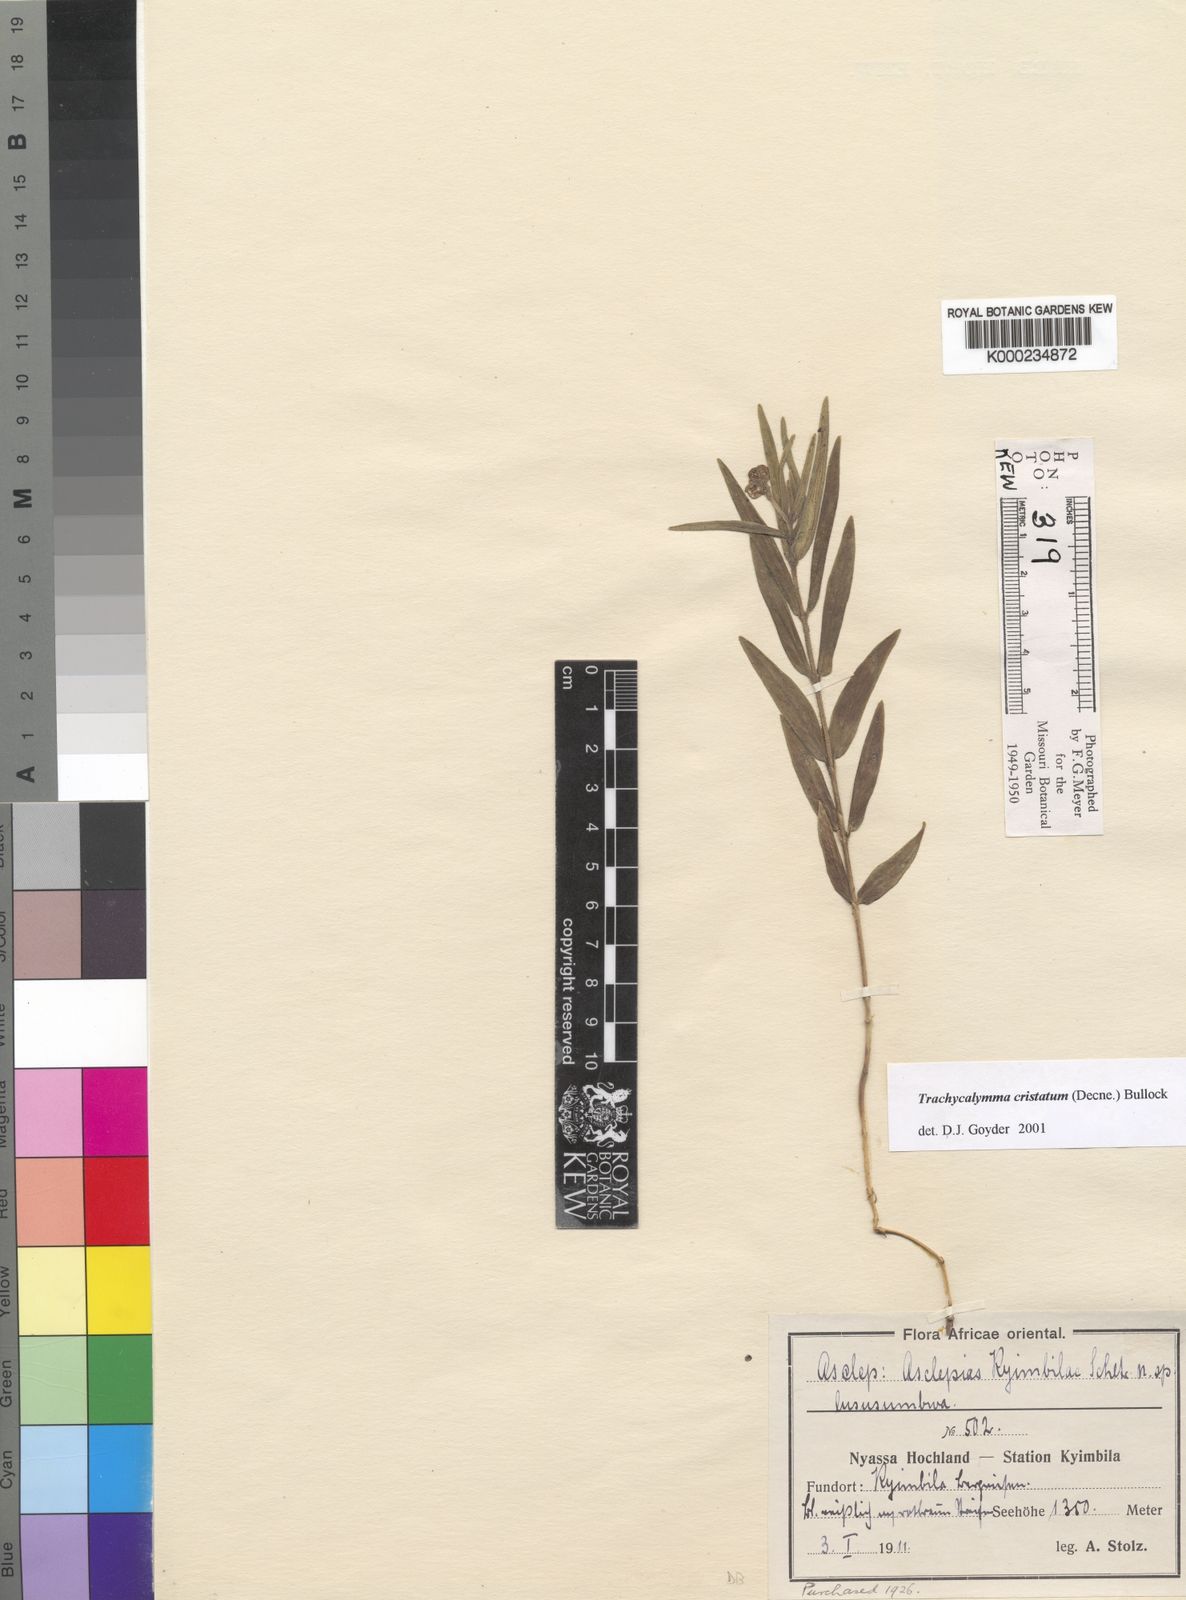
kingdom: Plantae
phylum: Tracheophyta
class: Magnoliopsida
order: Gentianales
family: Apocynaceae
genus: Asclepias
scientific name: Asclepias palustris
